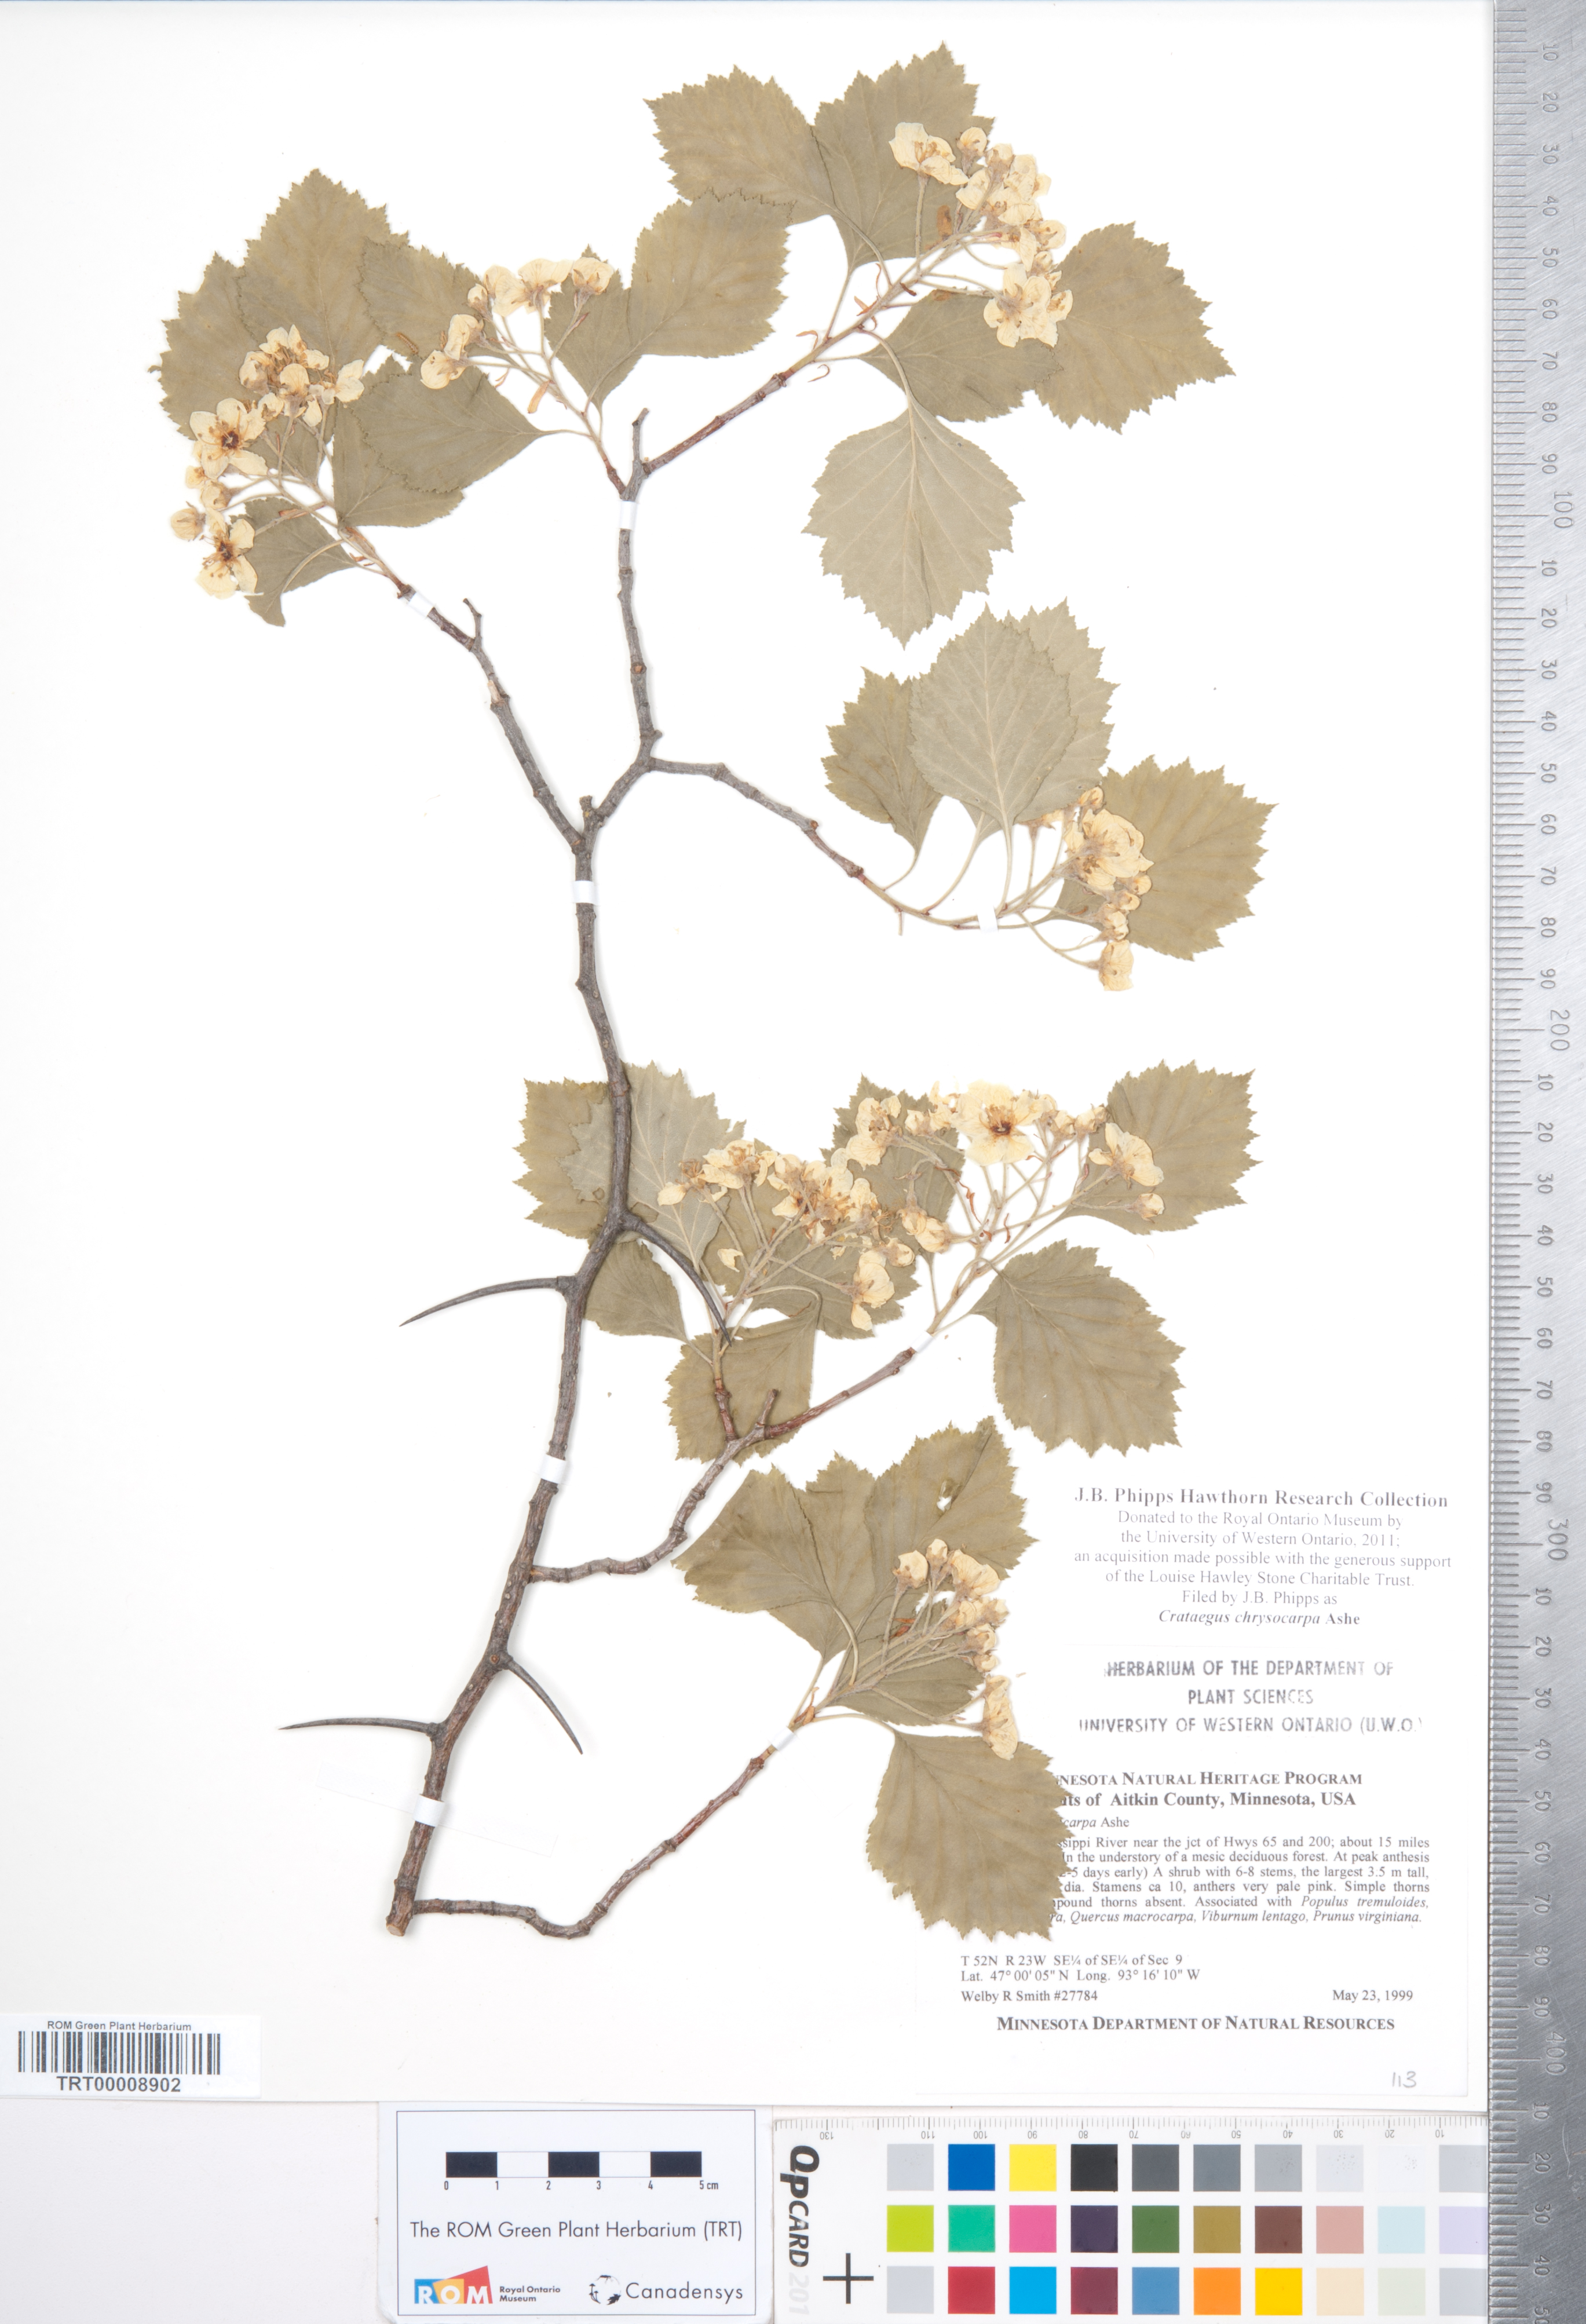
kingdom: Plantae
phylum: Tracheophyta
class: Magnoliopsida
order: Rosales
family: Rosaceae
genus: Crataegus
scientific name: Crataegus chrysocarpa
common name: Fire-berry hawthorn
